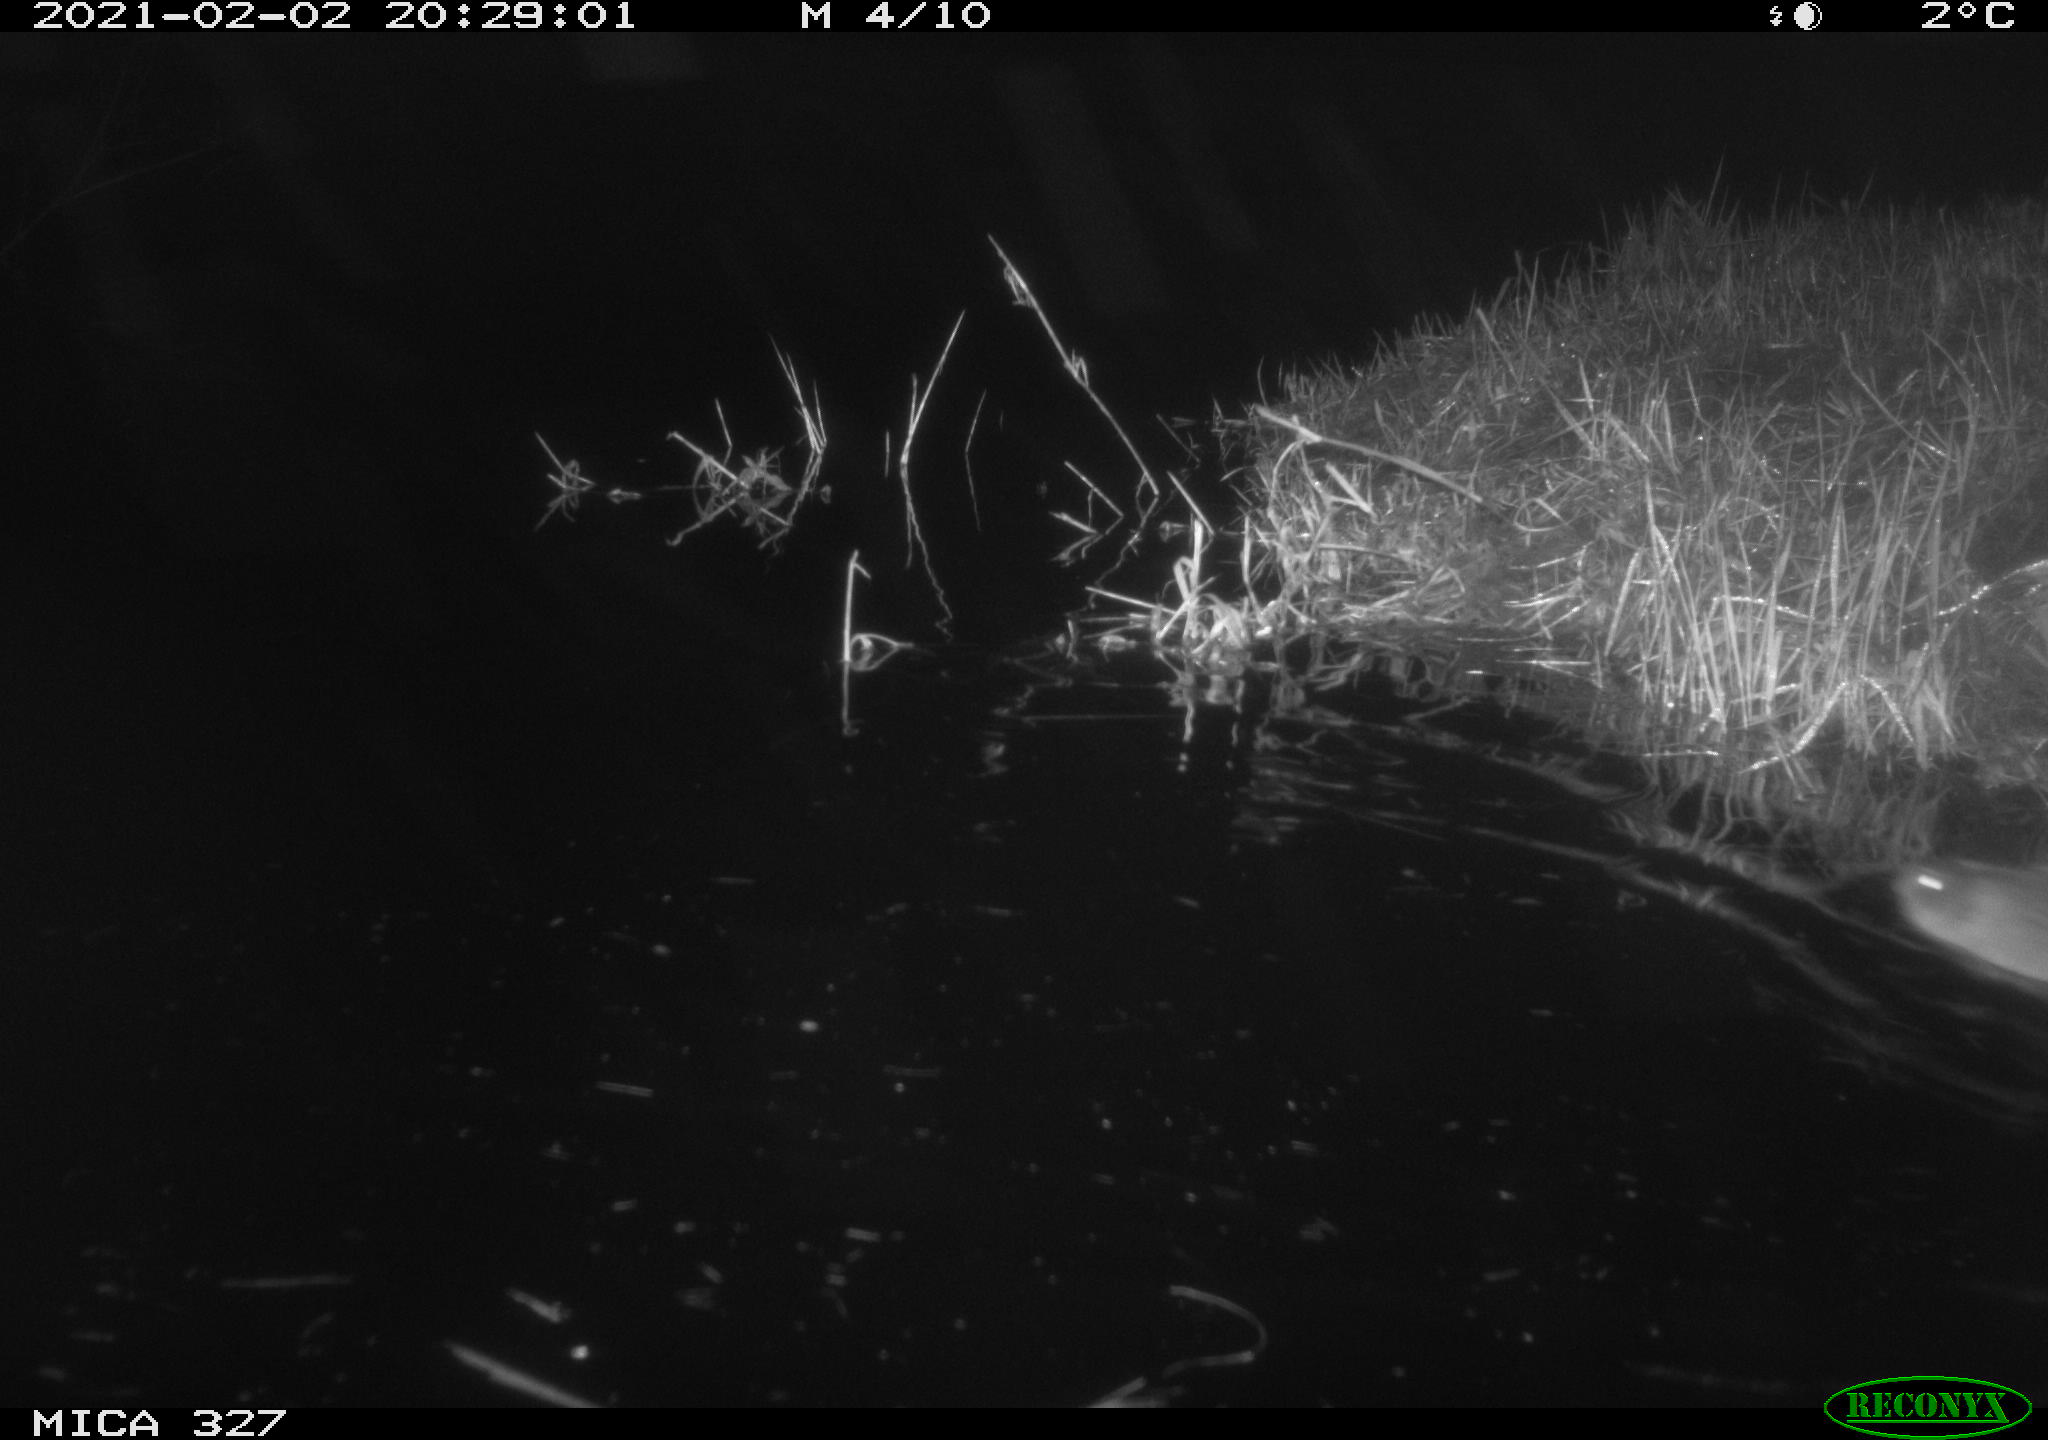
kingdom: Animalia
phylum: Chordata
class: Mammalia
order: Rodentia
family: Cricetidae
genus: Ondatra
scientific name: Ondatra zibethicus
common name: Muskrat
